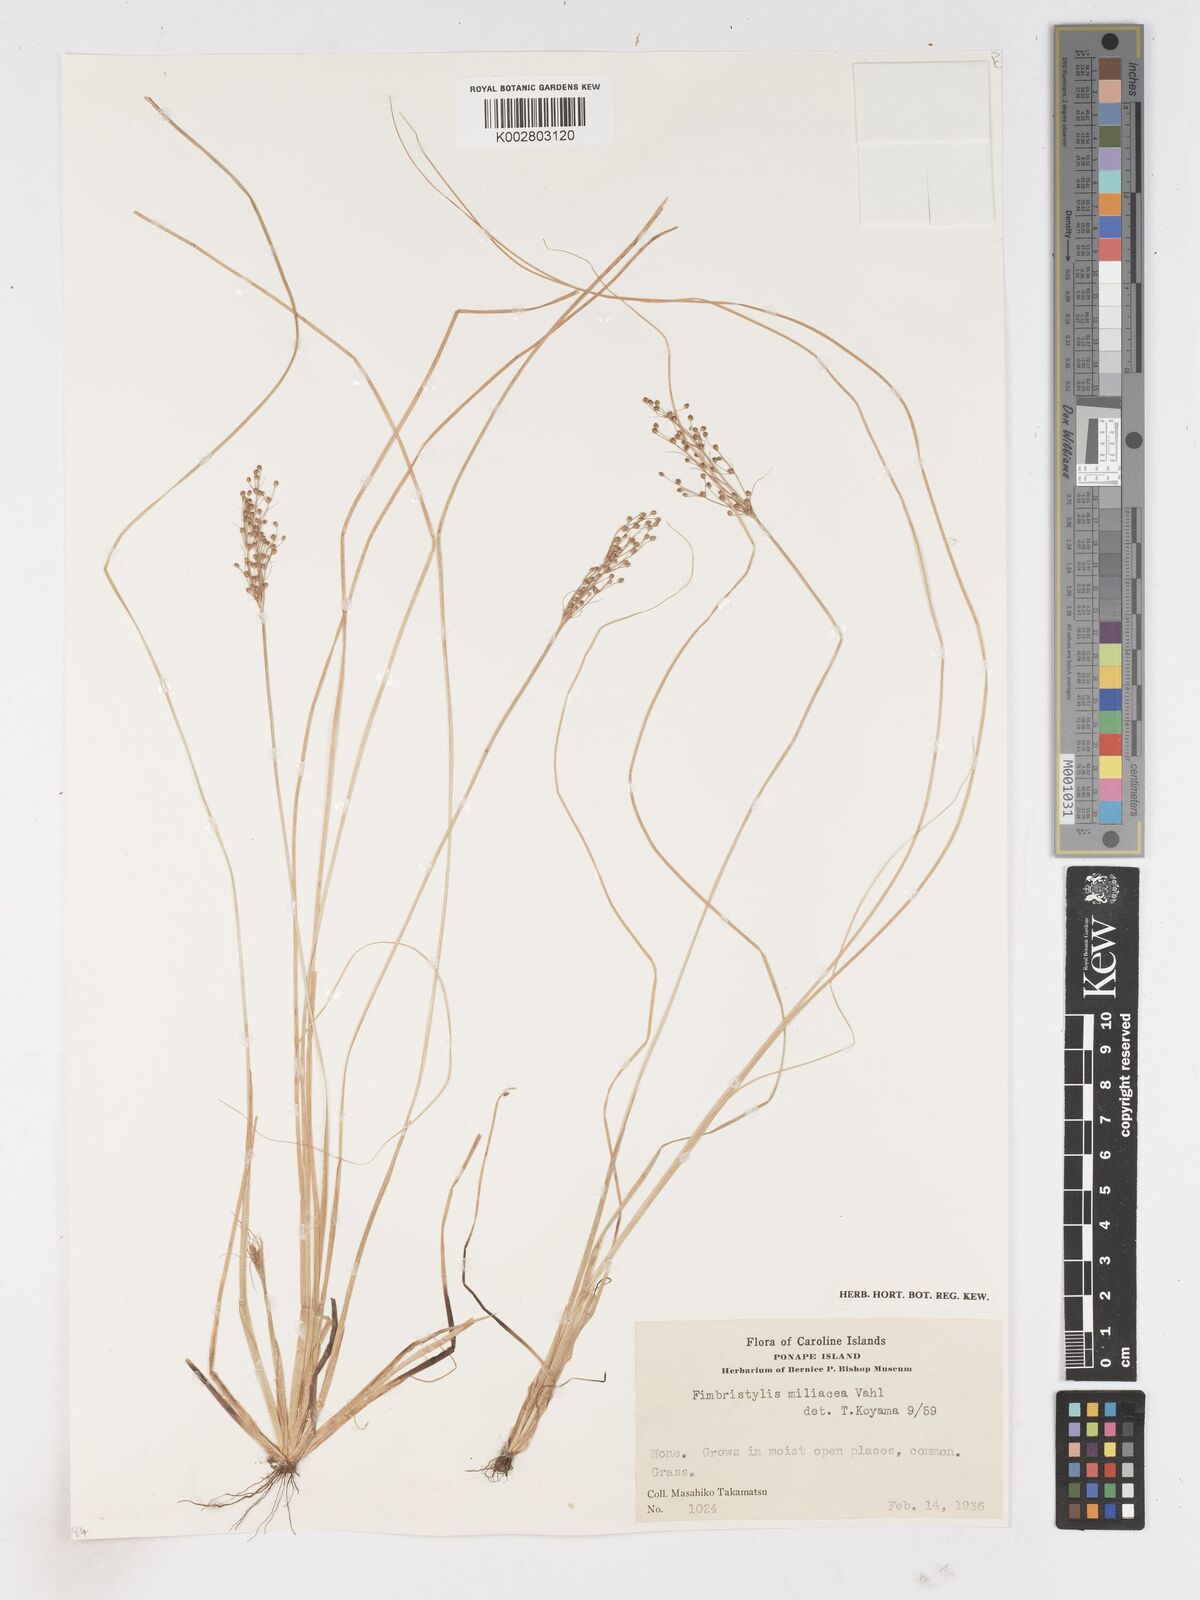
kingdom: Plantae
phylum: Tracheophyta
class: Liliopsida
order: Poales
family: Cyperaceae
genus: Fimbristylis
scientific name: Fimbristylis littoralis
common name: Fimbry
